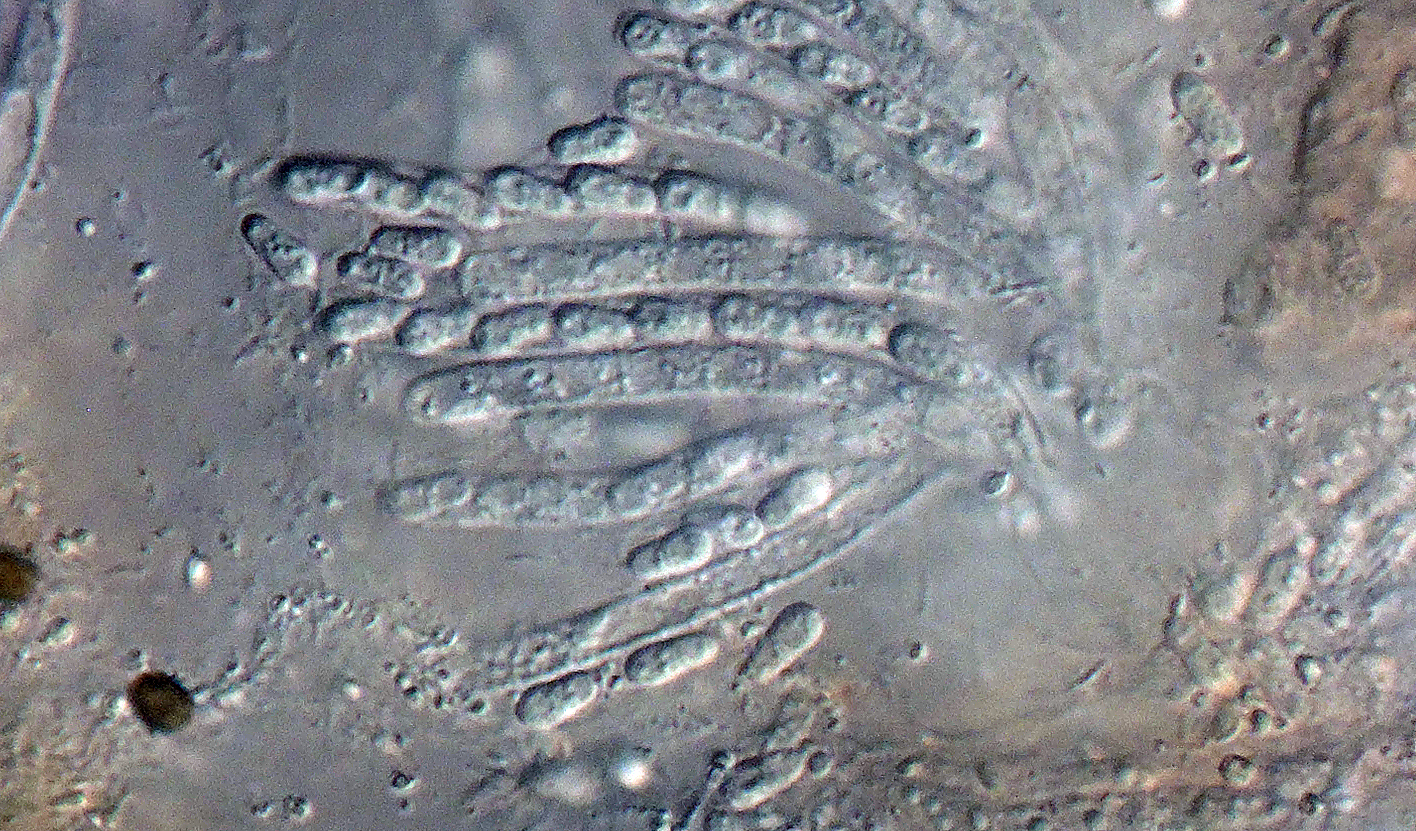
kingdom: Fungi
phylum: Ascomycota
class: Sordariomycetes
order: Hypocreales
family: Bionectriaceae
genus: Nectriopsis
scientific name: Nectriopsis tremellicola
